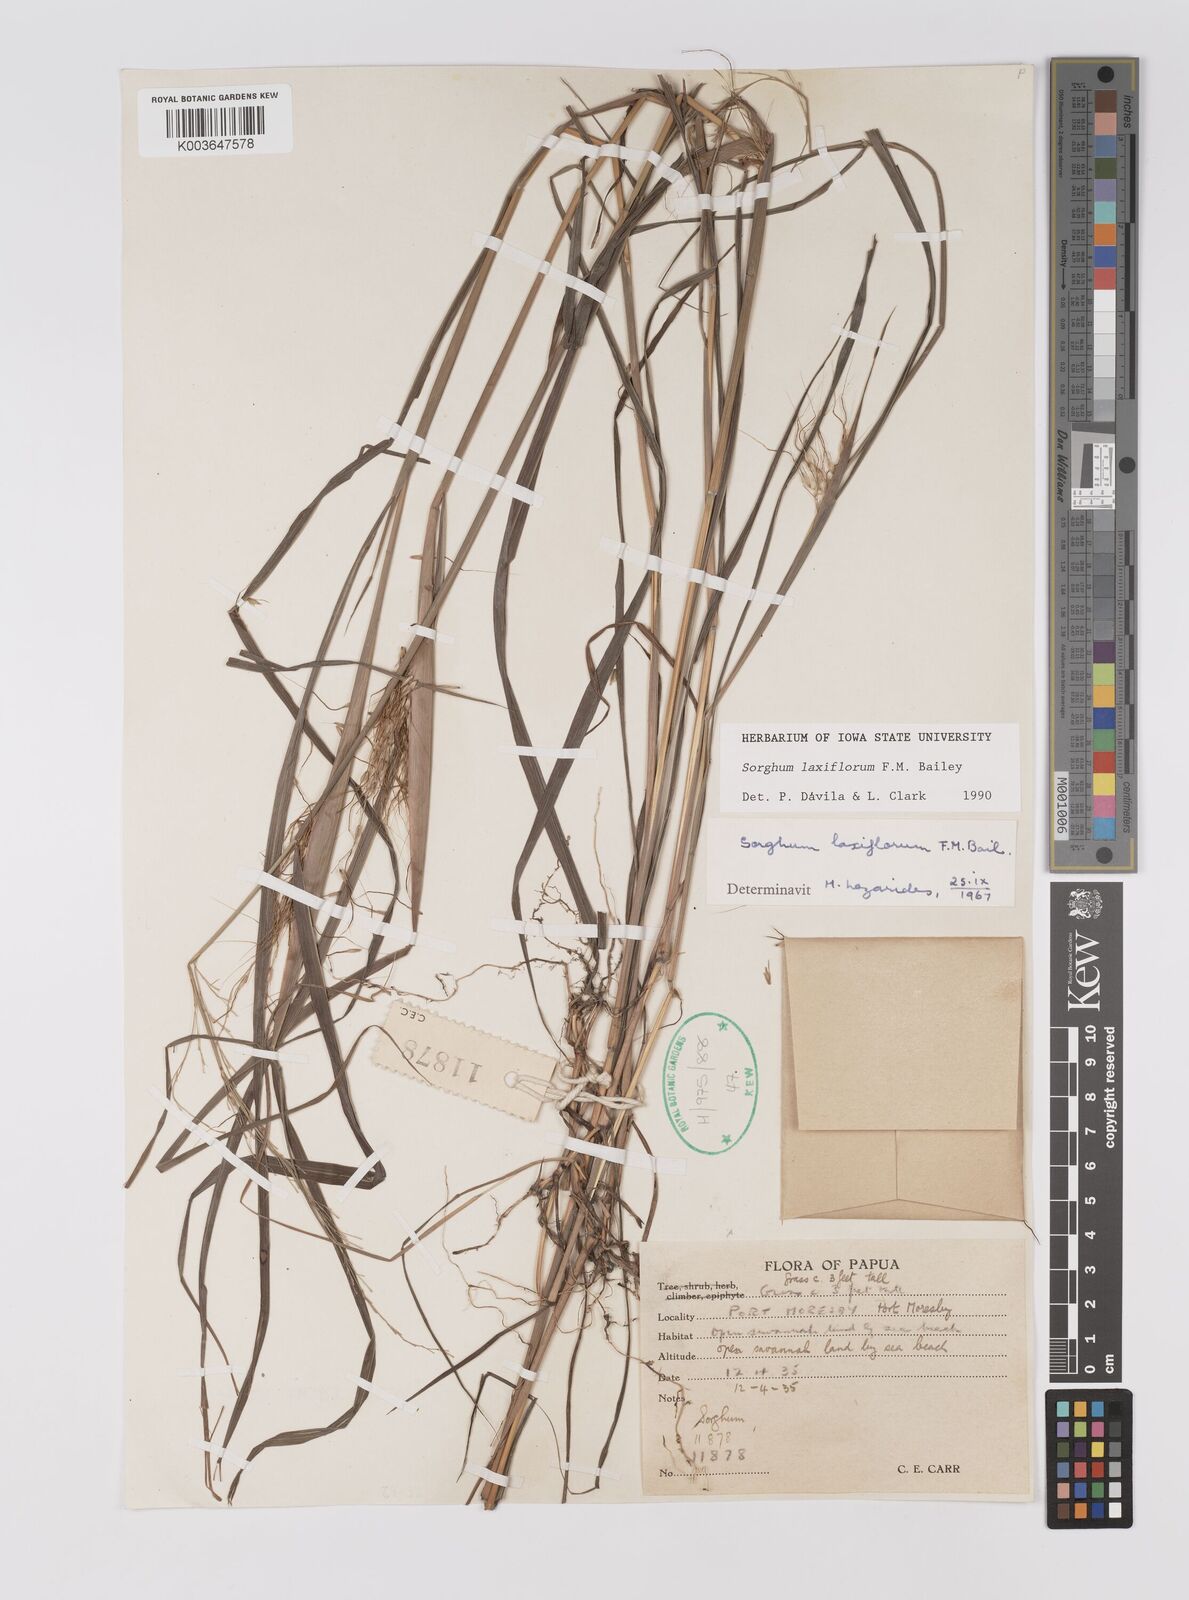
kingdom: Plantae
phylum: Tracheophyta
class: Liliopsida
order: Poales
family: Poaceae
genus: Sorghum
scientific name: Sorghum laxiflorum
